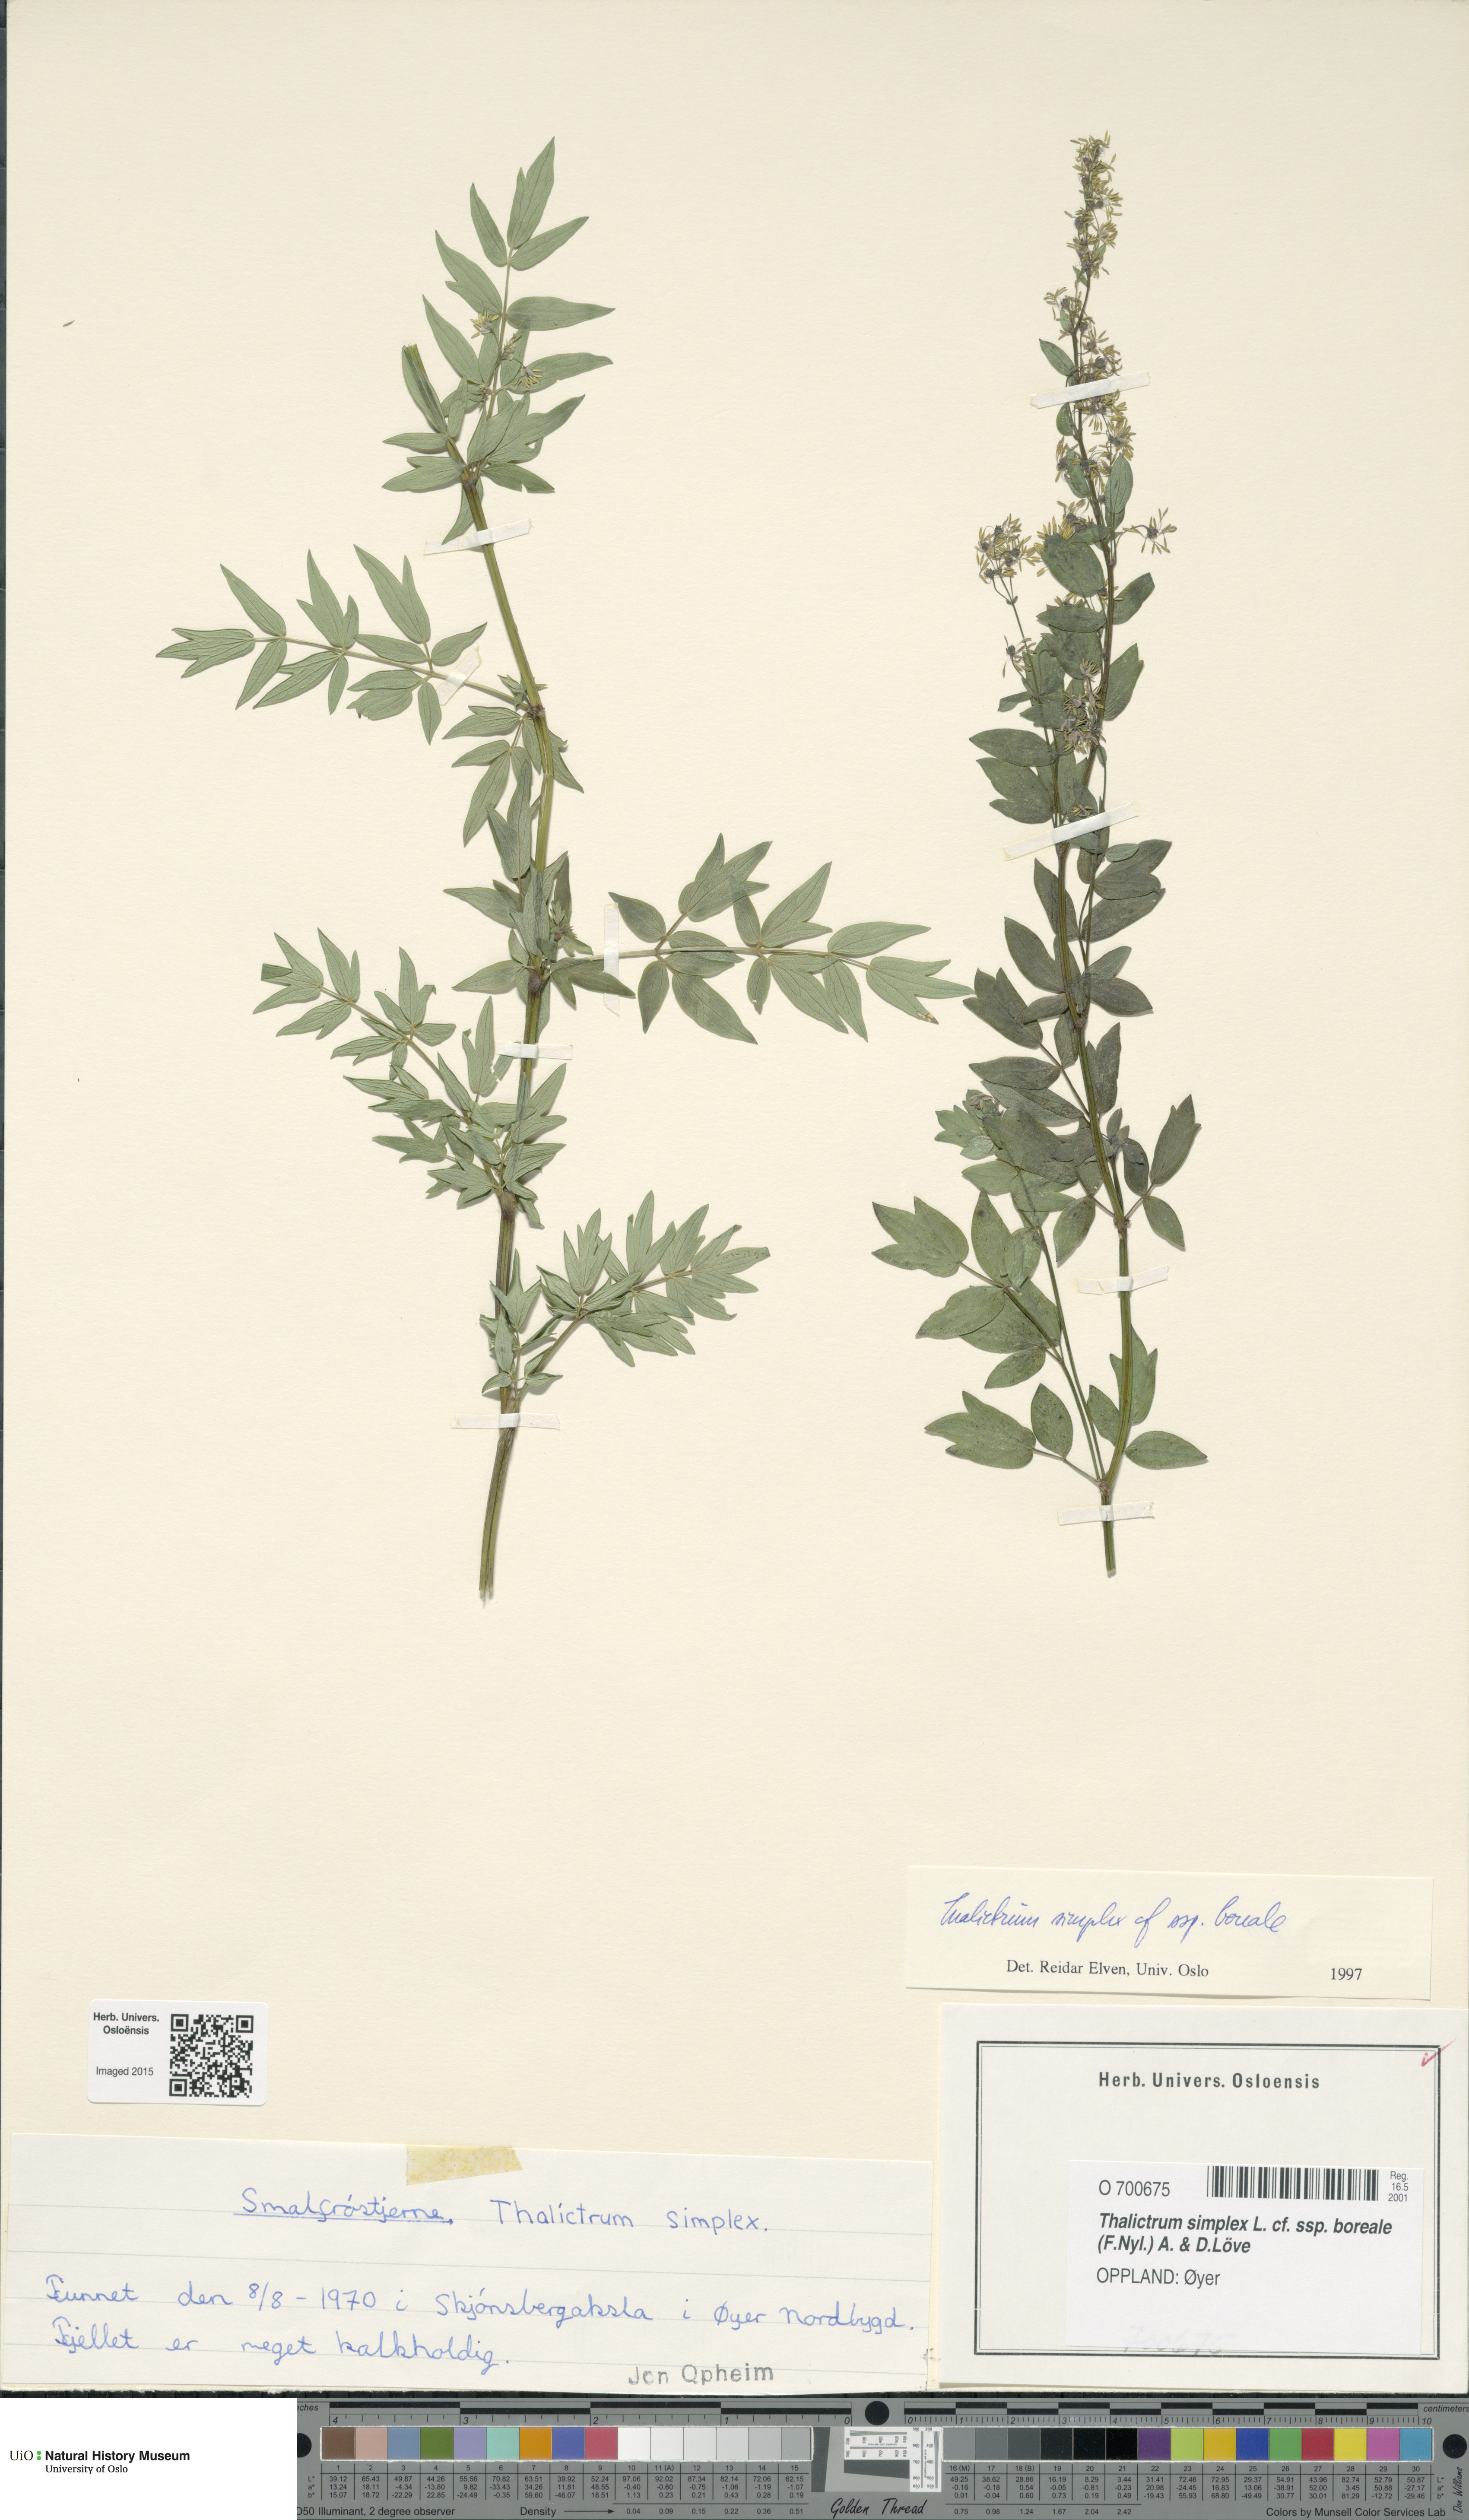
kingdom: Plantae
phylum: Tracheophyta
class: Magnoliopsida
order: Ranunculales
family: Ranunculaceae
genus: Thalictrum
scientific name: Thalictrum simplex
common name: Small meadow-rue
